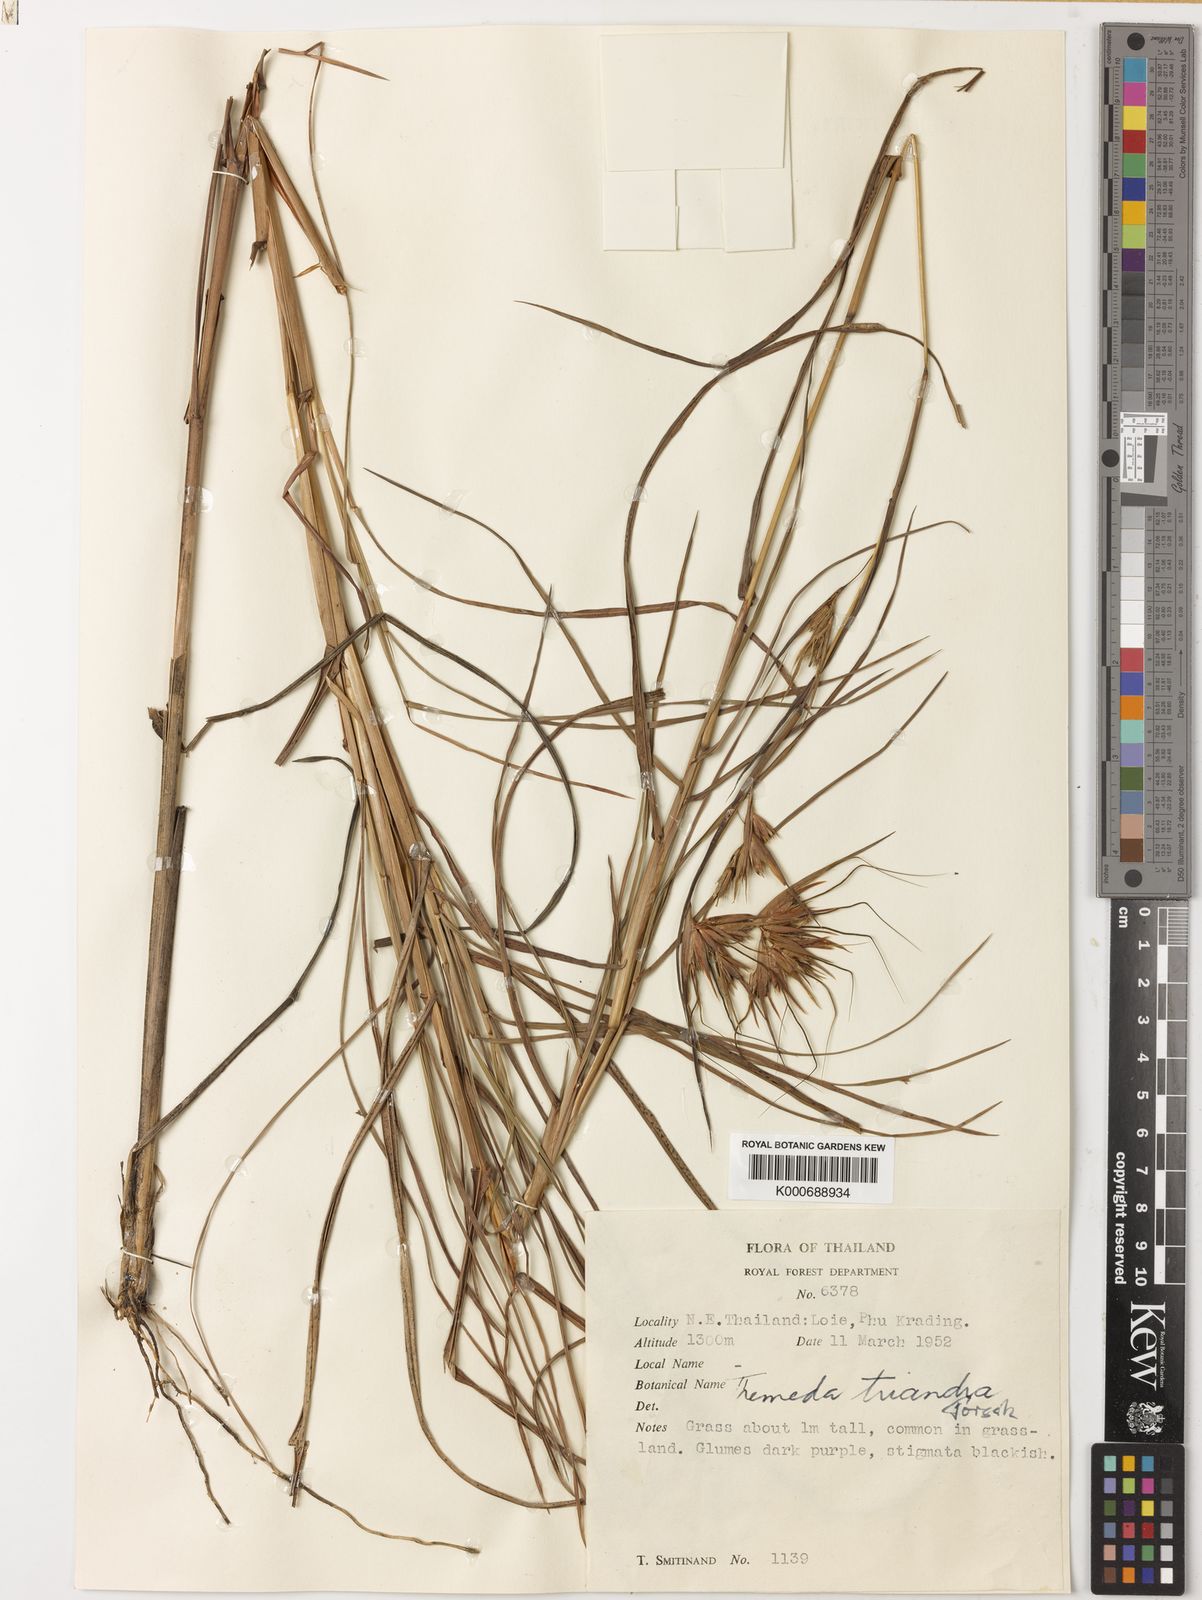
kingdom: Plantae
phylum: Tracheophyta
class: Liliopsida
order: Poales
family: Poaceae
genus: Themeda
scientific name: Themeda triandra
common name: Kangaroo grass
